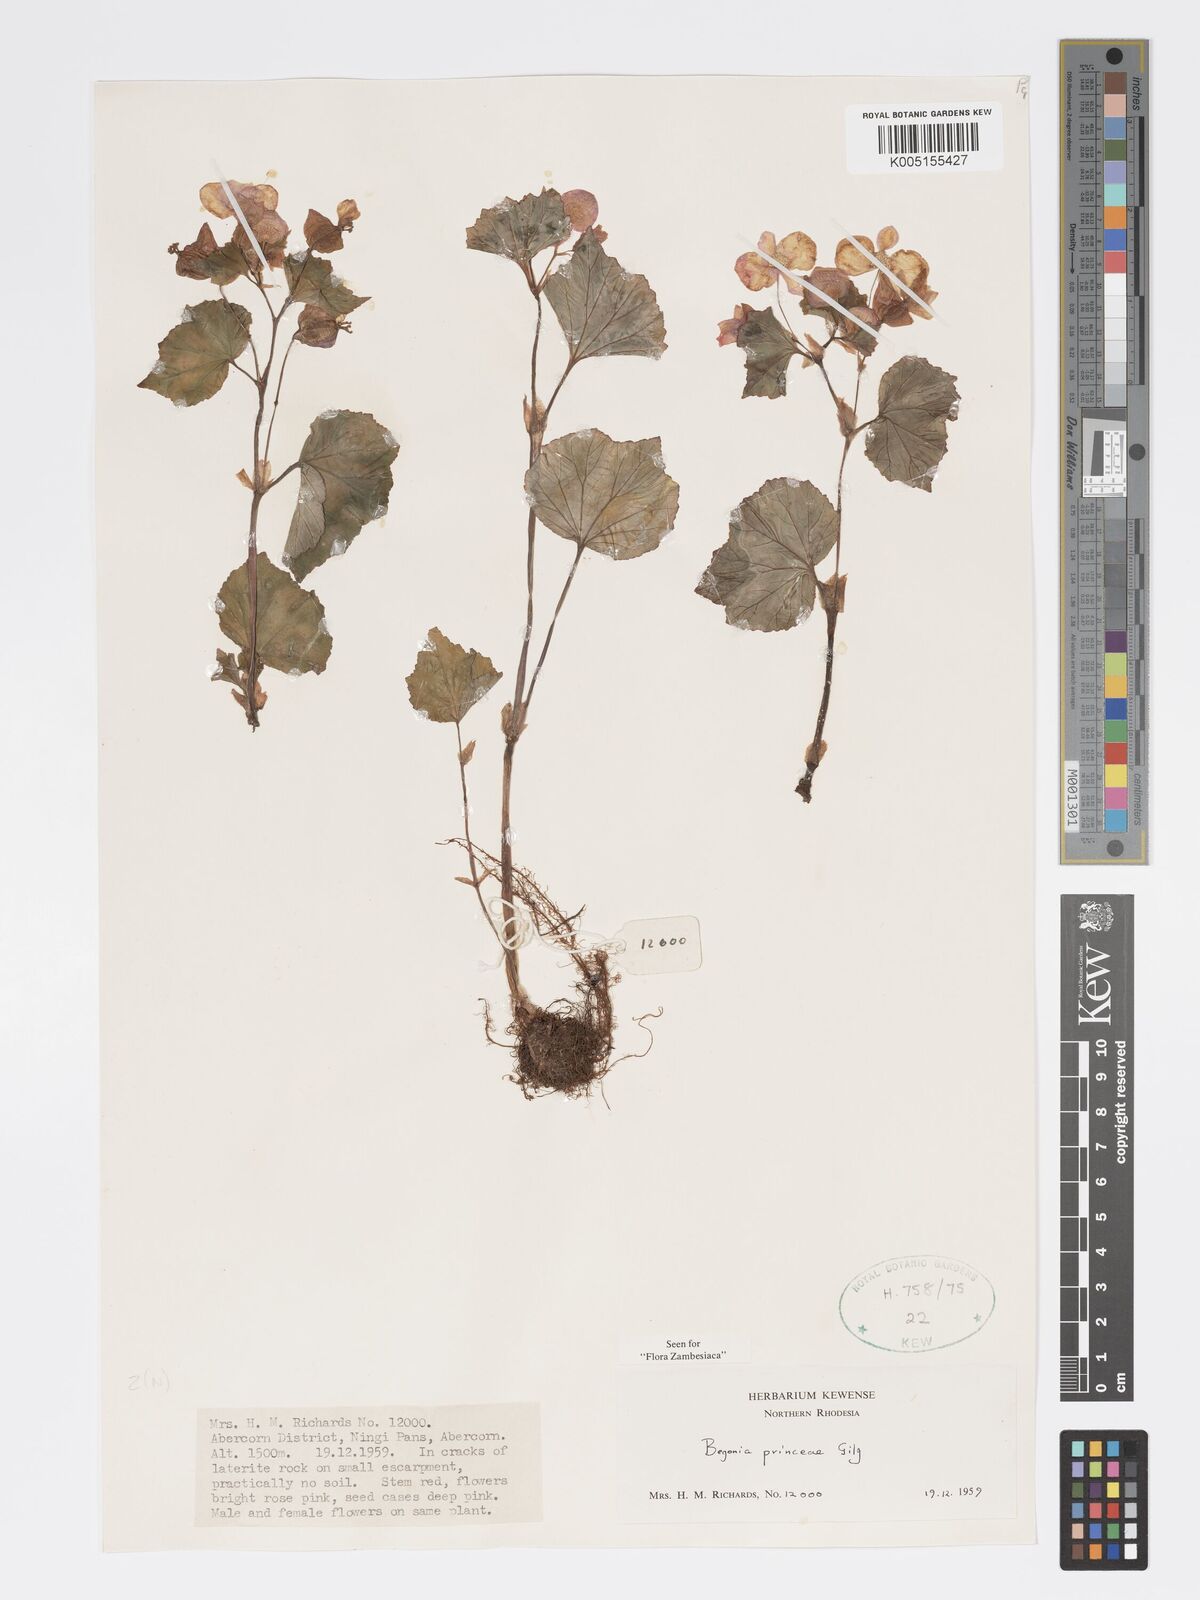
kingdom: Plantae
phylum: Tracheophyta
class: Magnoliopsida
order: Cucurbitales
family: Begoniaceae
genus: Begonia
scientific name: Begonia princeae
